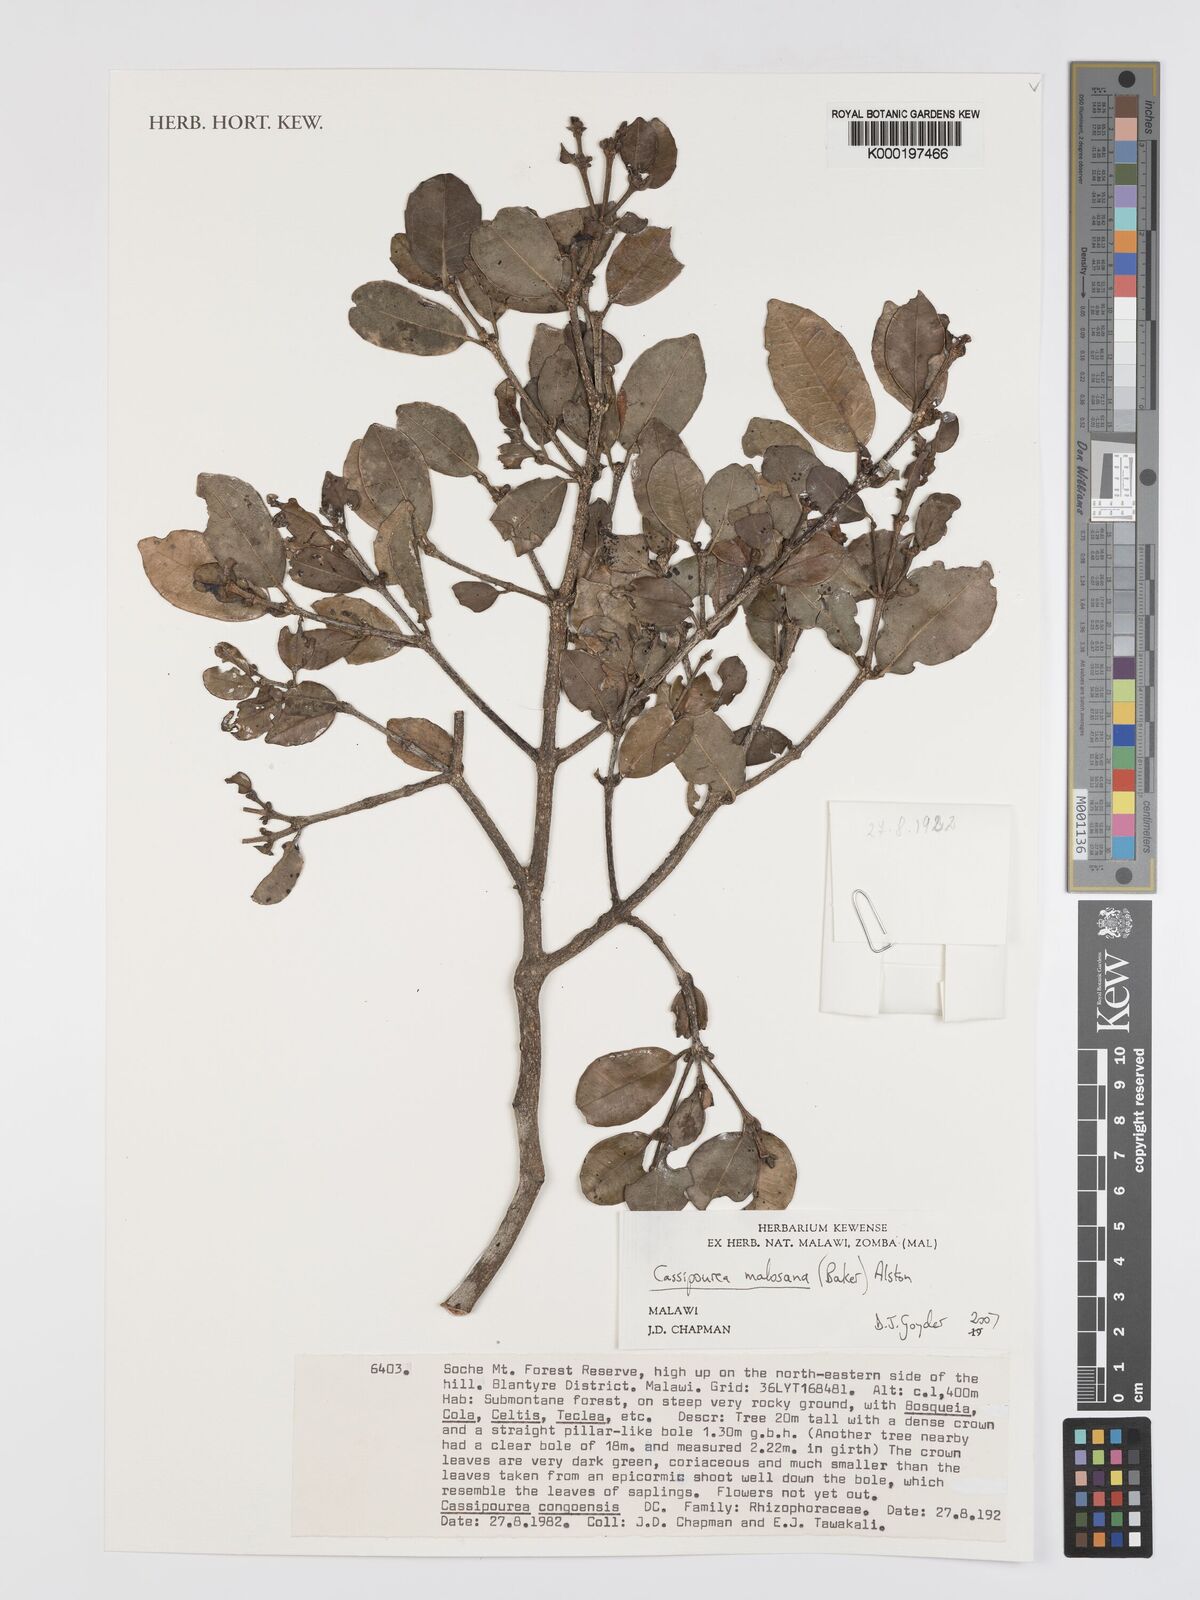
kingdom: Plantae
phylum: Tracheophyta
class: Magnoliopsida
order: Malpighiales
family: Rhizophoraceae
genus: Cassipourea
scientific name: Cassipourea malosana
